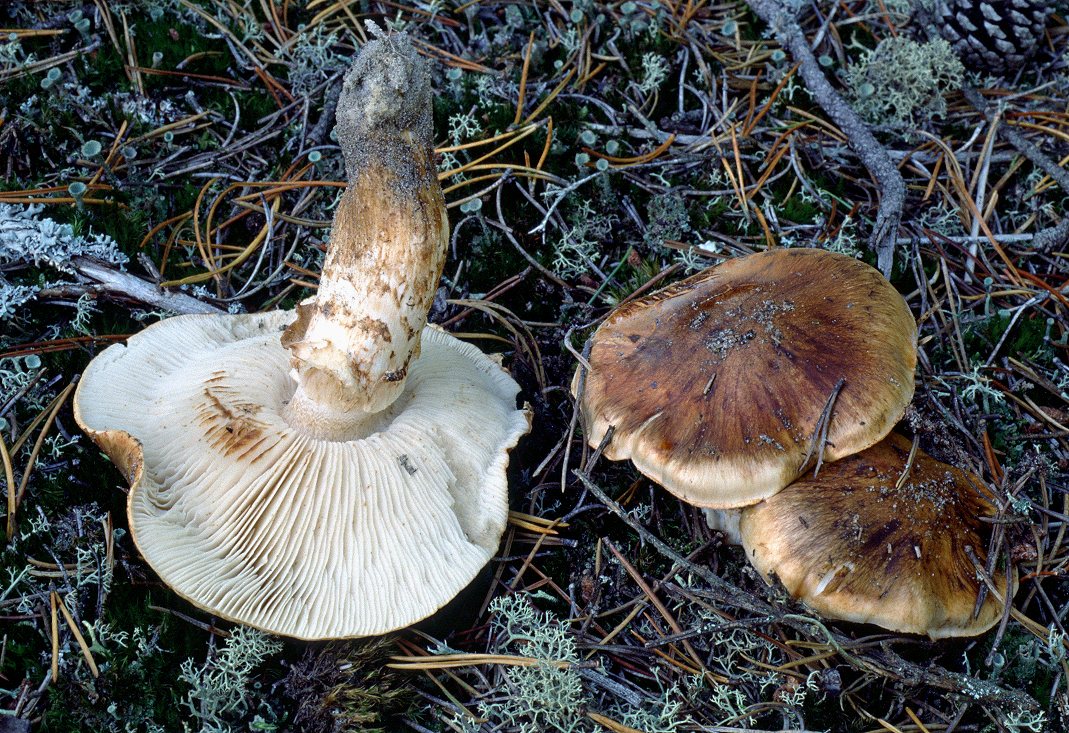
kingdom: Fungi
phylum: Basidiomycota
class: Agaricomycetes
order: Agaricales
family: Tricholomataceae
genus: Tricholoma
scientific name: Tricholoma focale
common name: halsbånd-ridderhat
